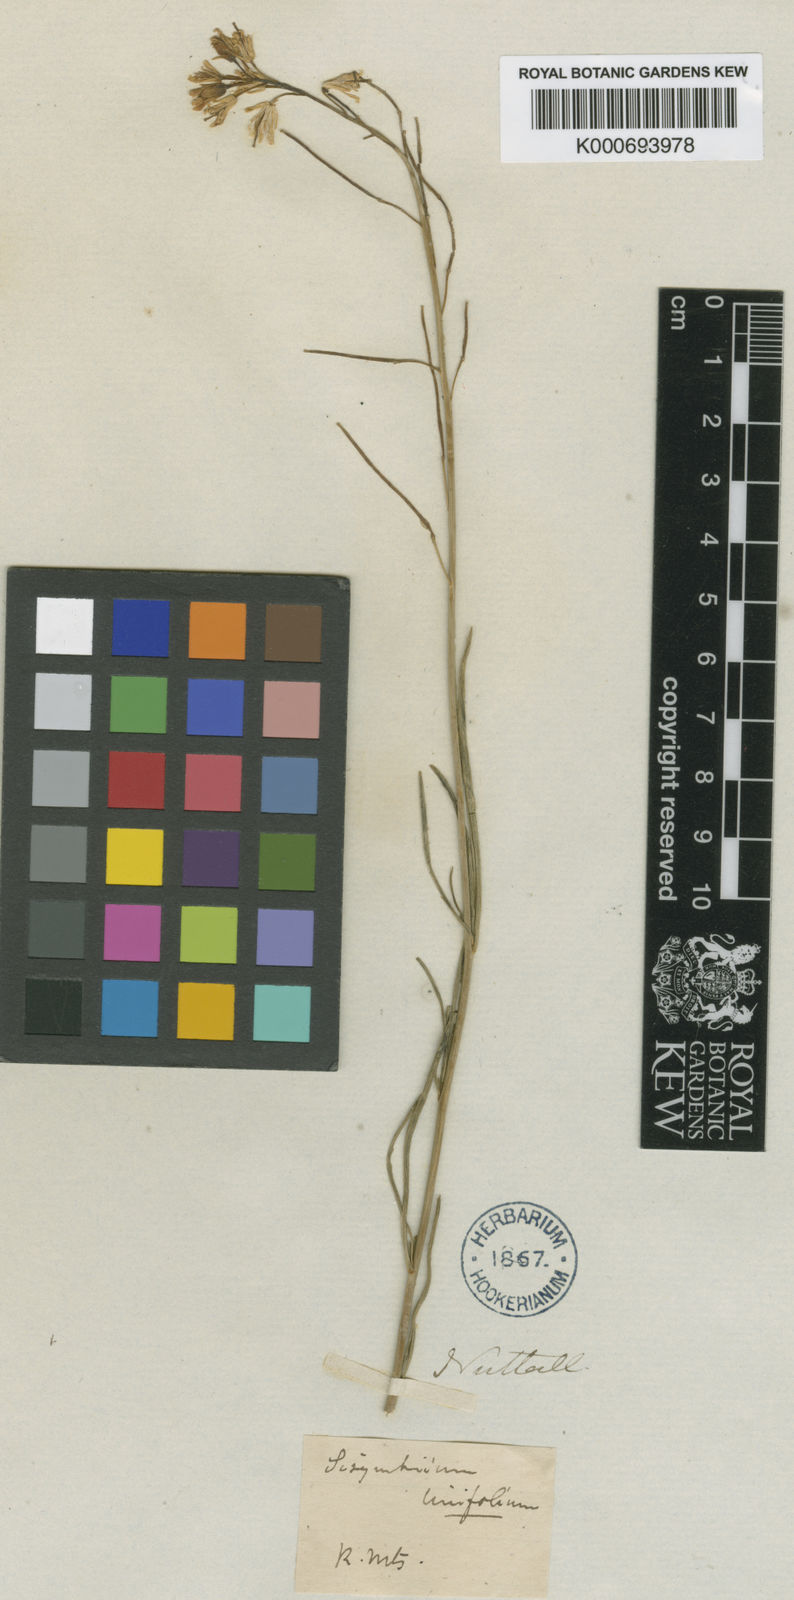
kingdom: Plantae
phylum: Tracheophyta
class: Magnoliopsida
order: Brassicales
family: Brassicaceae
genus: Sisymbrium
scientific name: Sisymbrium linifolium
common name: Salmon river plains mustard
